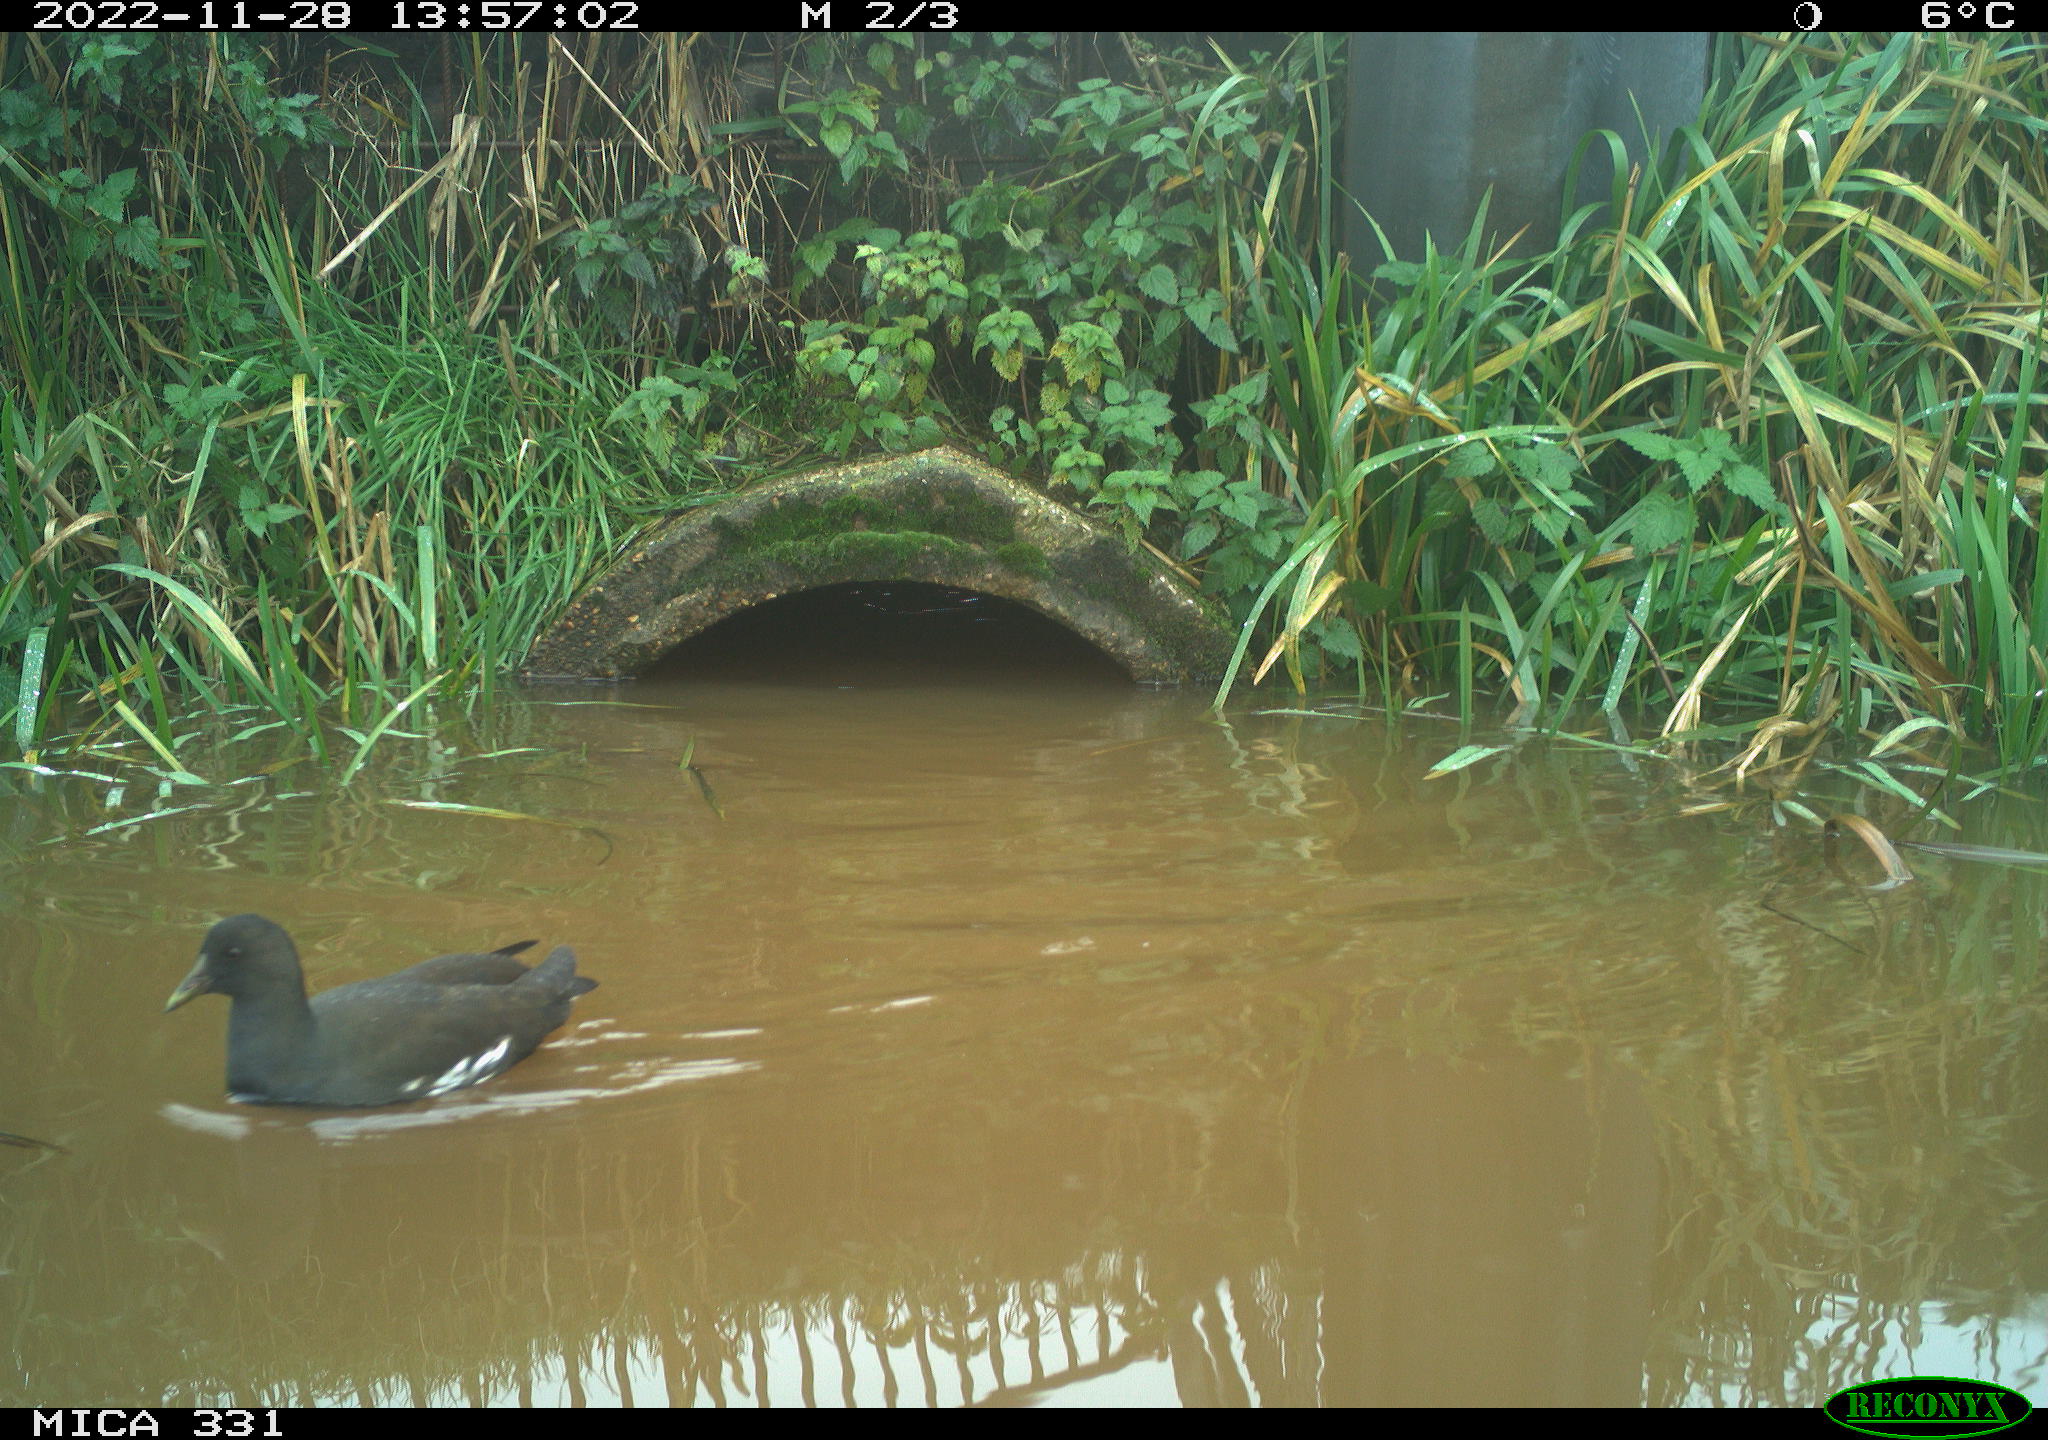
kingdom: Animalia
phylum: Chordata
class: Aves
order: Gruiformes
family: Rallidae
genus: Gallinula
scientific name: Gallinula chloropus
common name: Common moorhen
